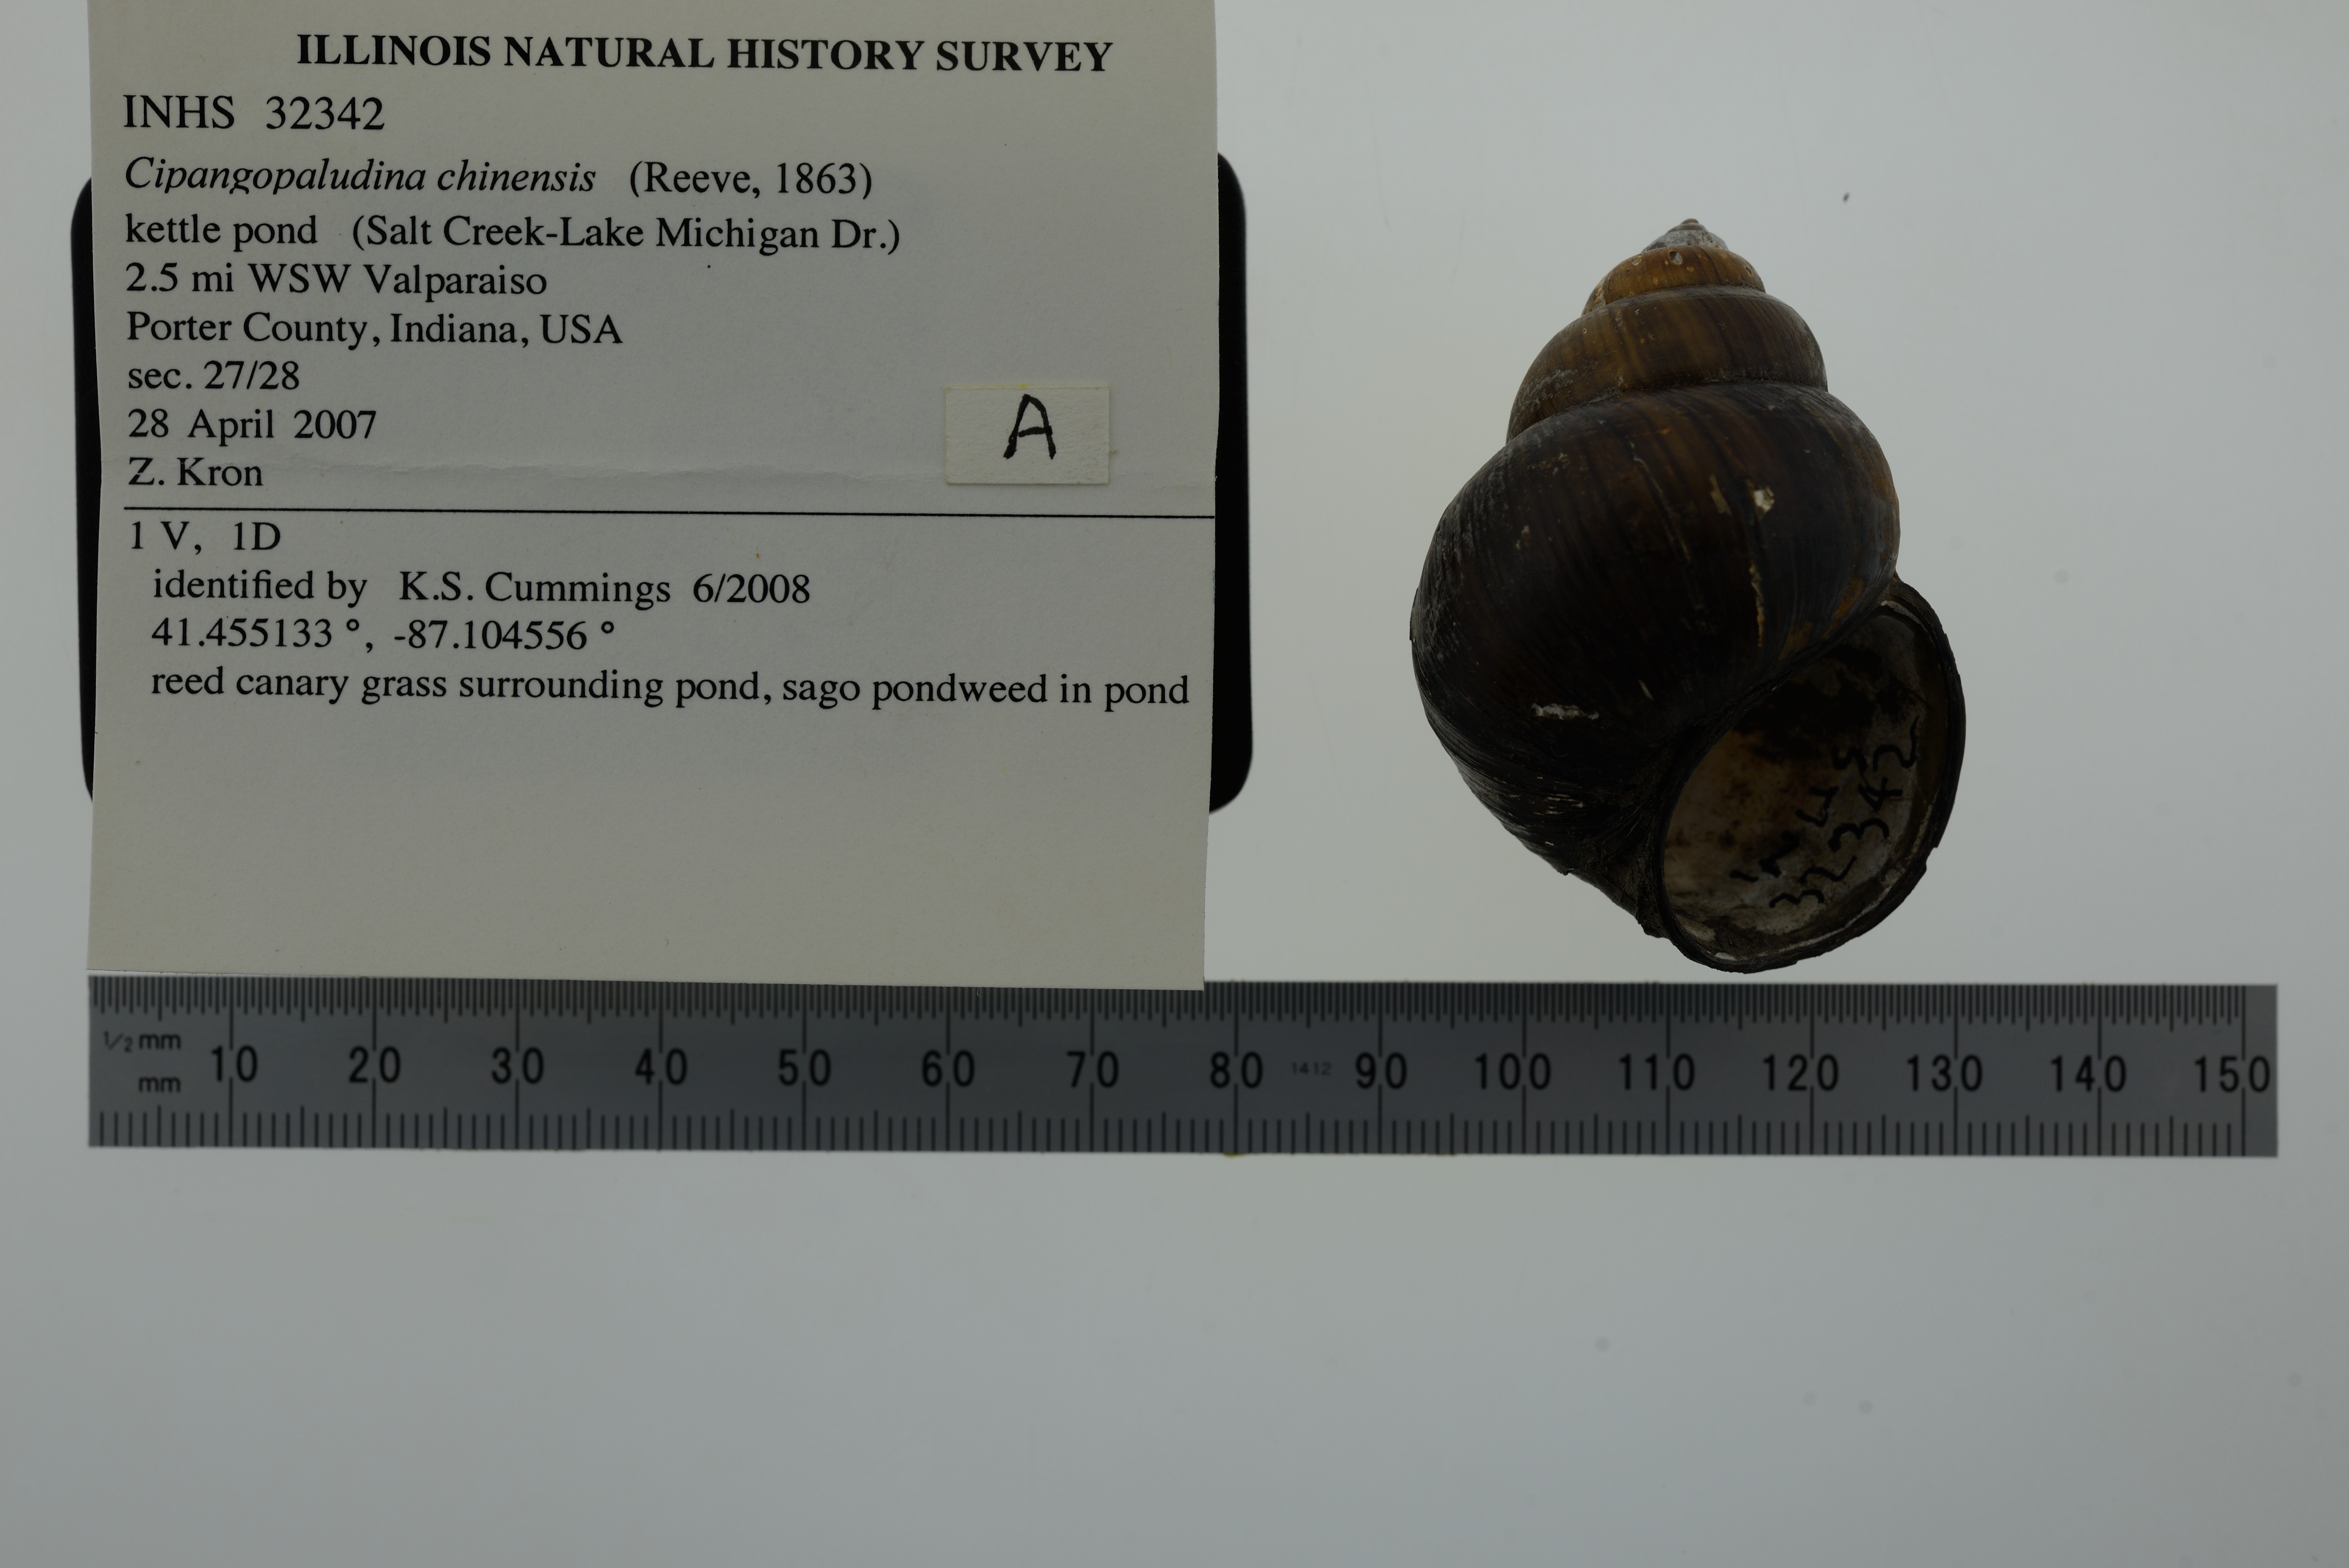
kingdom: Animalia
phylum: Mollusca
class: Gastropoda
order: Architaenioglossa
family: Viviparidae
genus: Cipangopaludina
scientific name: Cipangopaludina chinensis
